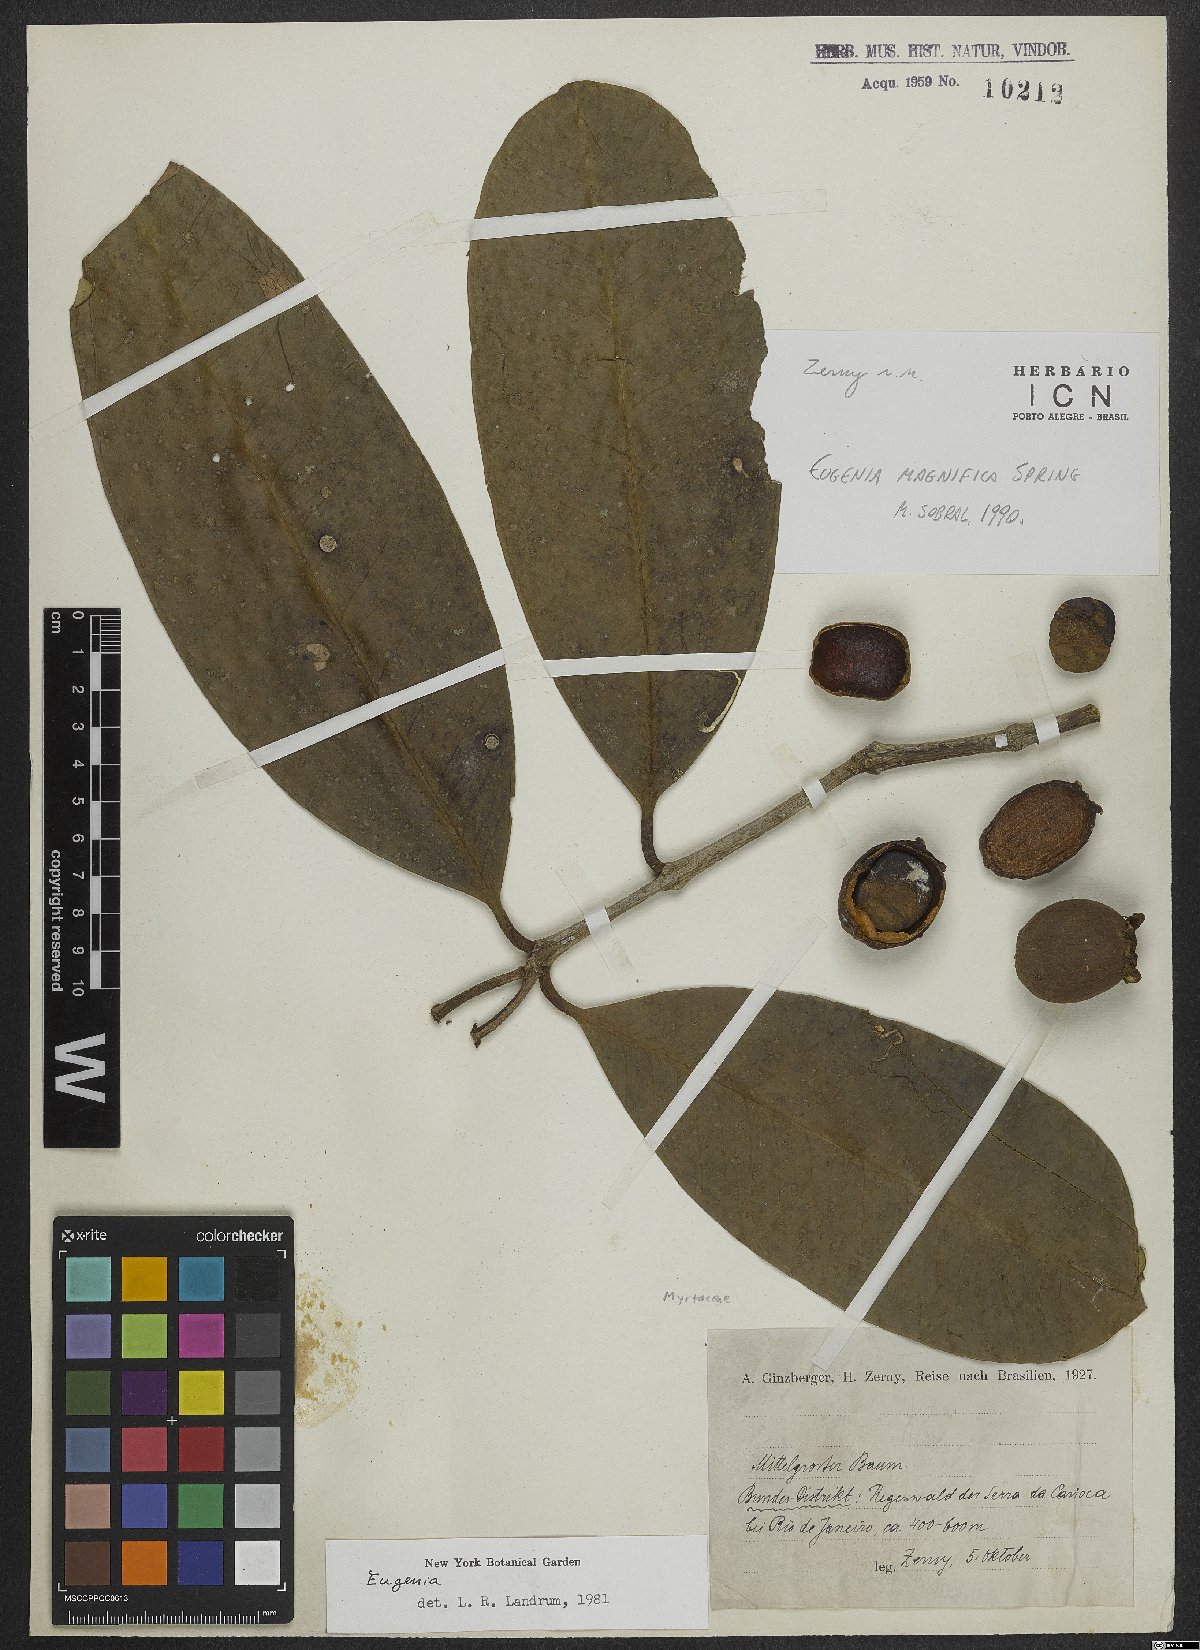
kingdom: Plantae
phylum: Tracheophyta
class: Magnoliopsida
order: Myrtales
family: Myrtaceae
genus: Eugenia
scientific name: Eugenia magnifica
